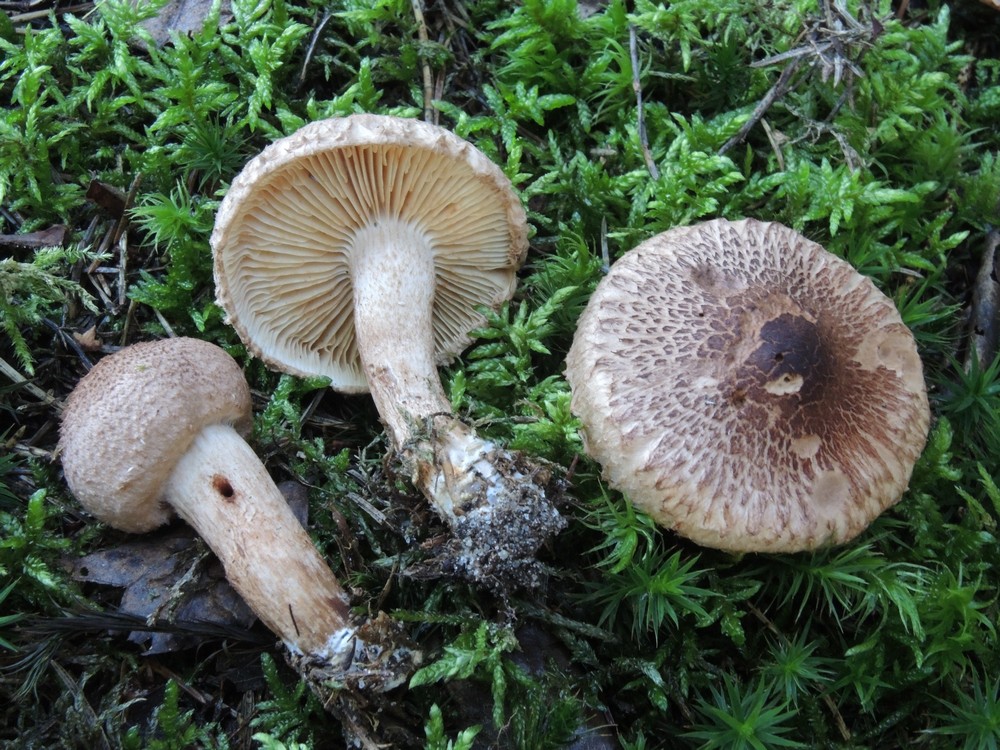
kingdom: Fungi
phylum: Basidiomycota
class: Agaricomycetes
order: Agaricales
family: Tricholomataceae
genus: Tricholoma
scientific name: Tricholoma vaccinum
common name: ko-ridderhat
